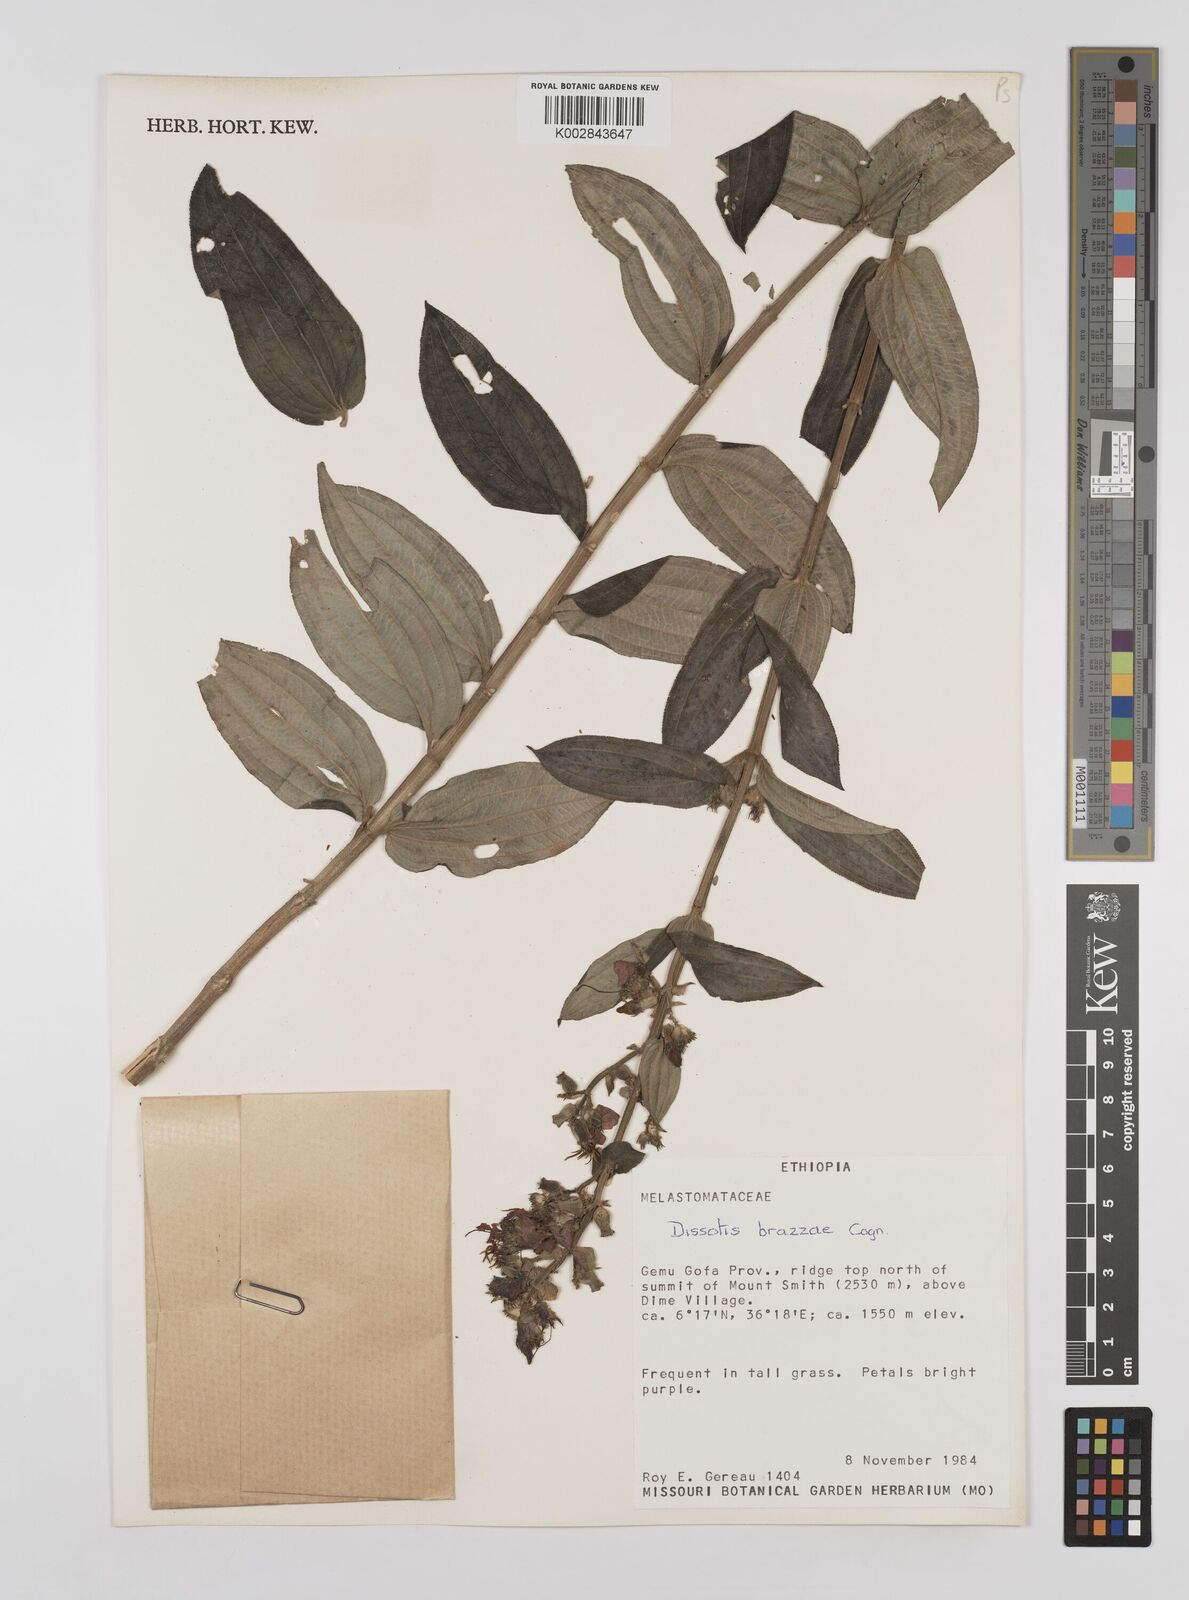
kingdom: Plantae
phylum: Tracheophyta
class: Magnoliopsida
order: Myrtales
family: Melastomataceae
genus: Dupineta
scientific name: Dupineta brazzae
